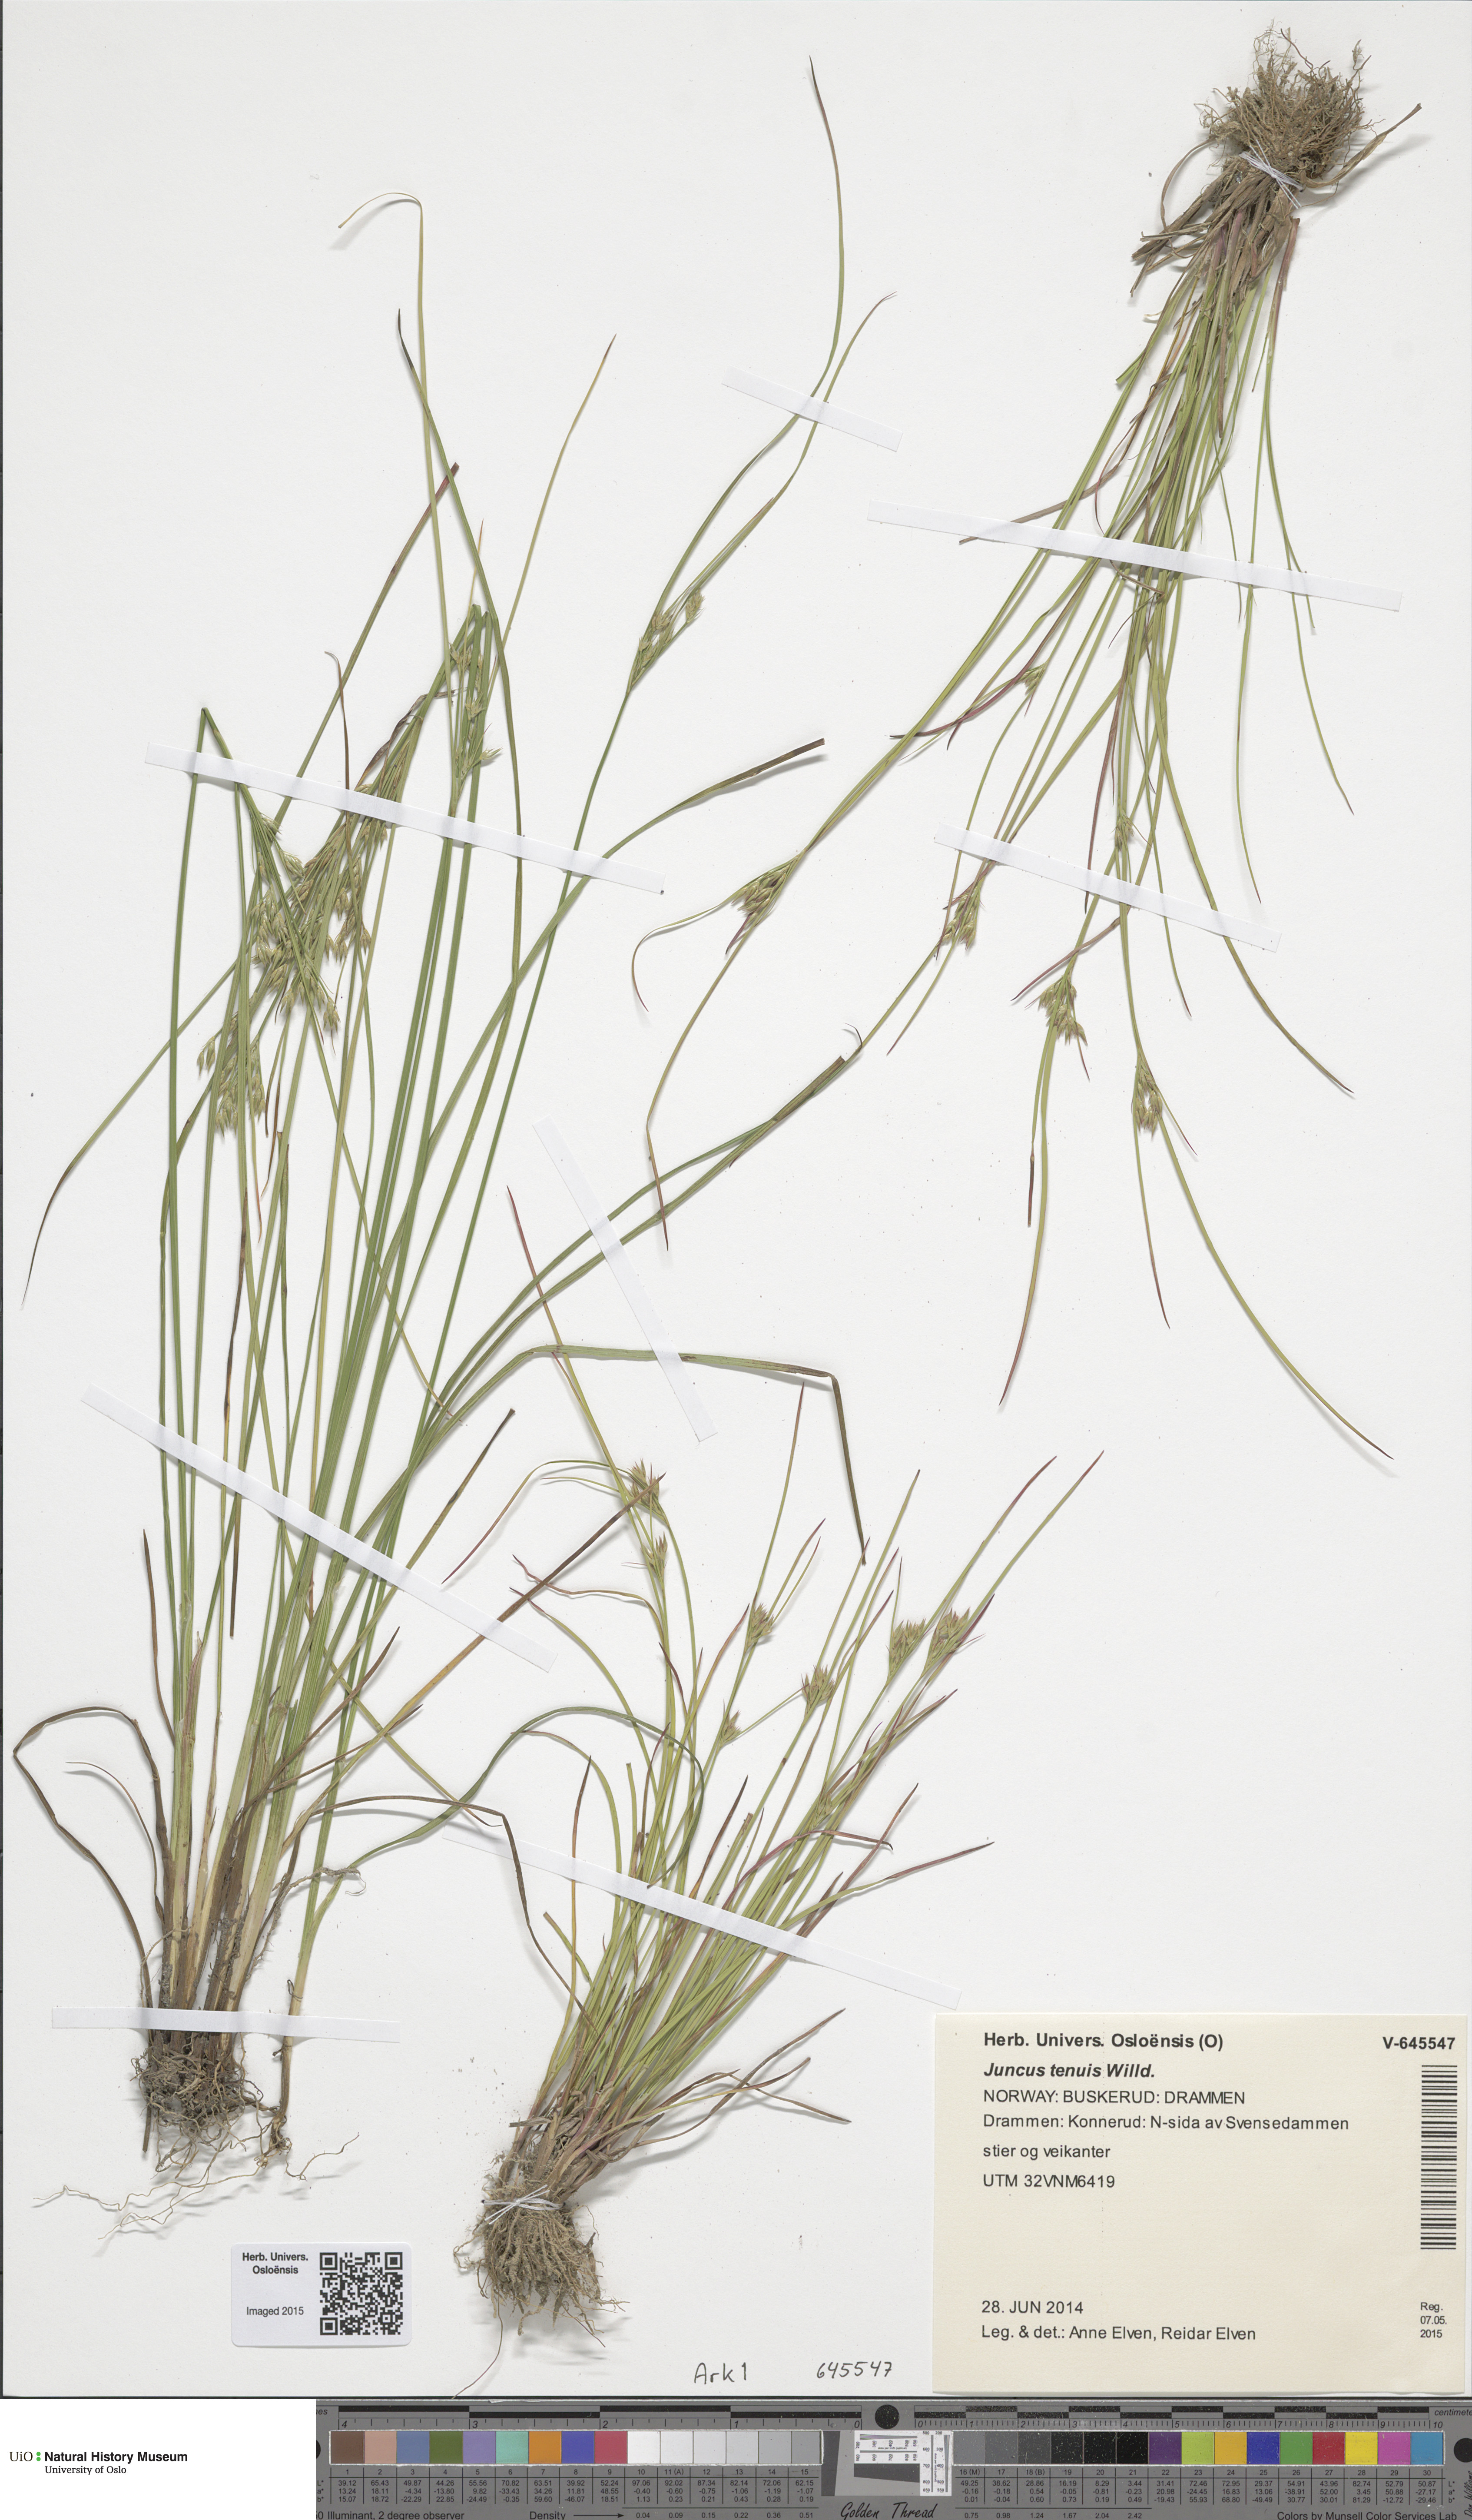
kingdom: Plantae
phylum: Tracheophyta
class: Liliopsida
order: Poales
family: Juncaceae
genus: Juncus
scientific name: Juncus tenuis
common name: Slender rush
